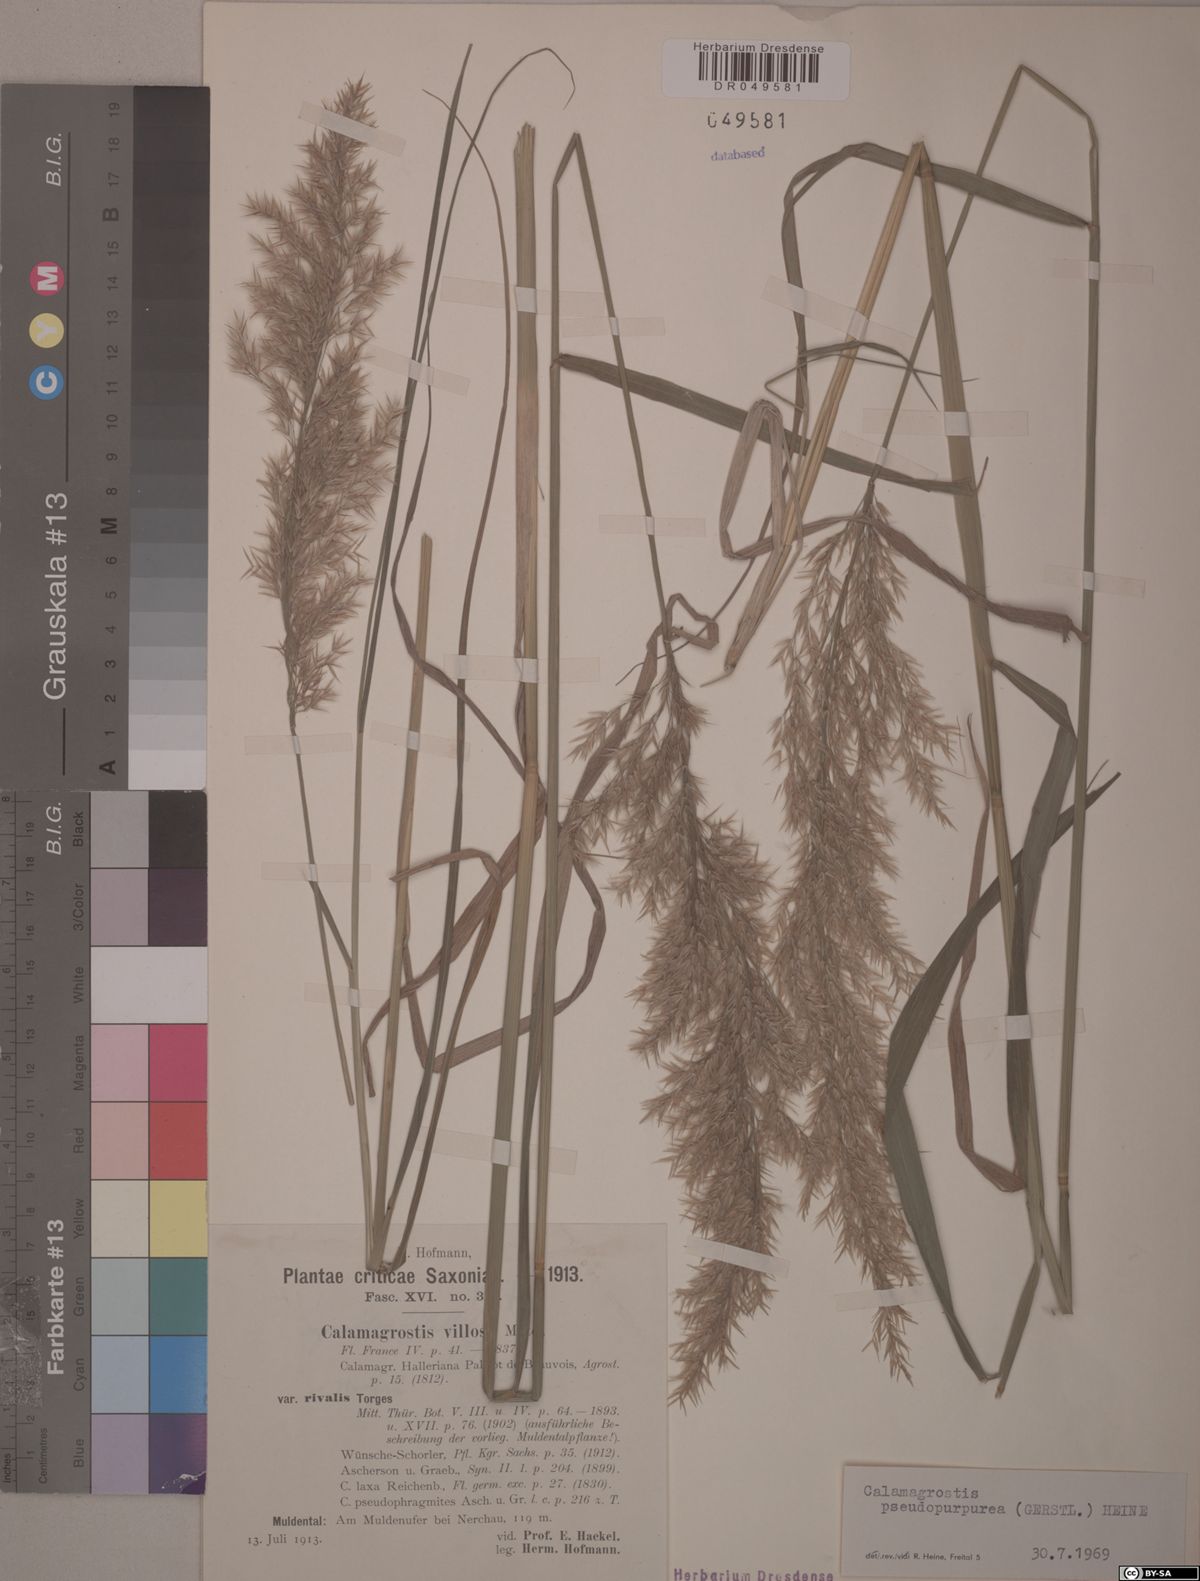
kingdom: Plantae
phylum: Tracheophyta
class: Liliopsida
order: Poales
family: Poaceae
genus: Calamagrostis
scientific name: Calamagrostis purpurea
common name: Scandinavian small-reed
